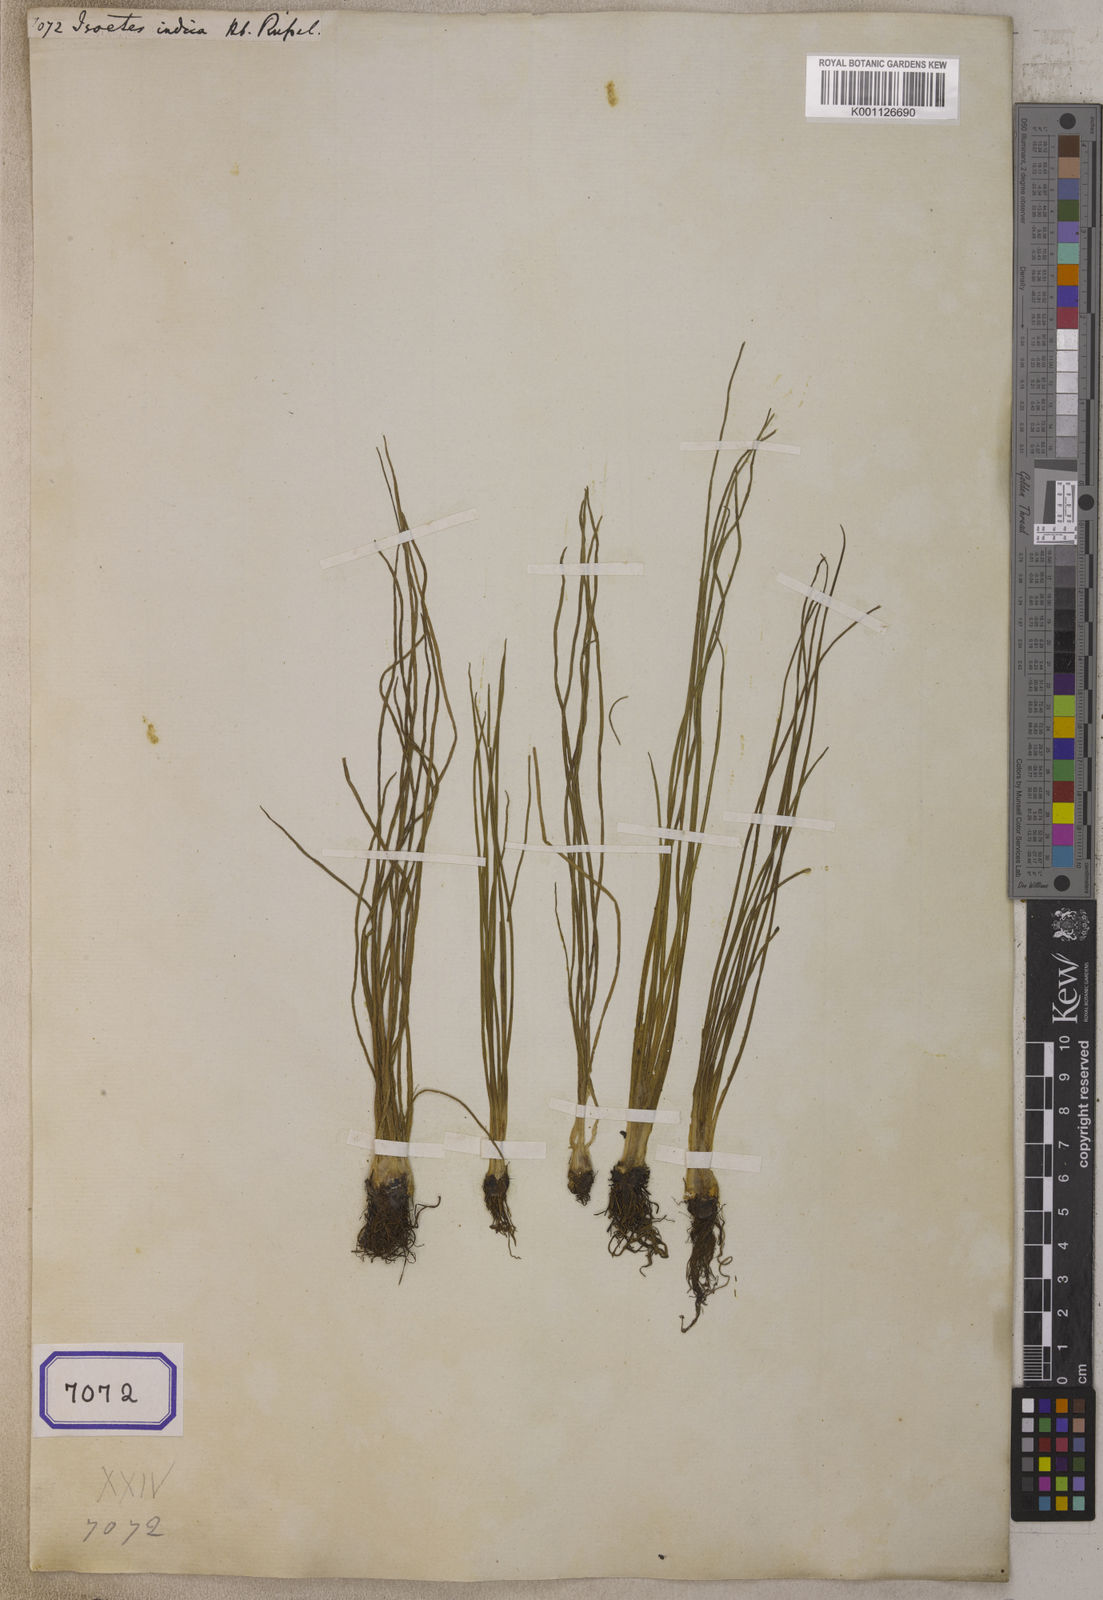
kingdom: Plantae
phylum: Tracheophyta
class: Lycopodiopsida
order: Isoetales
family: Isoetaceae
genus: Isoetes
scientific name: Isoetes
